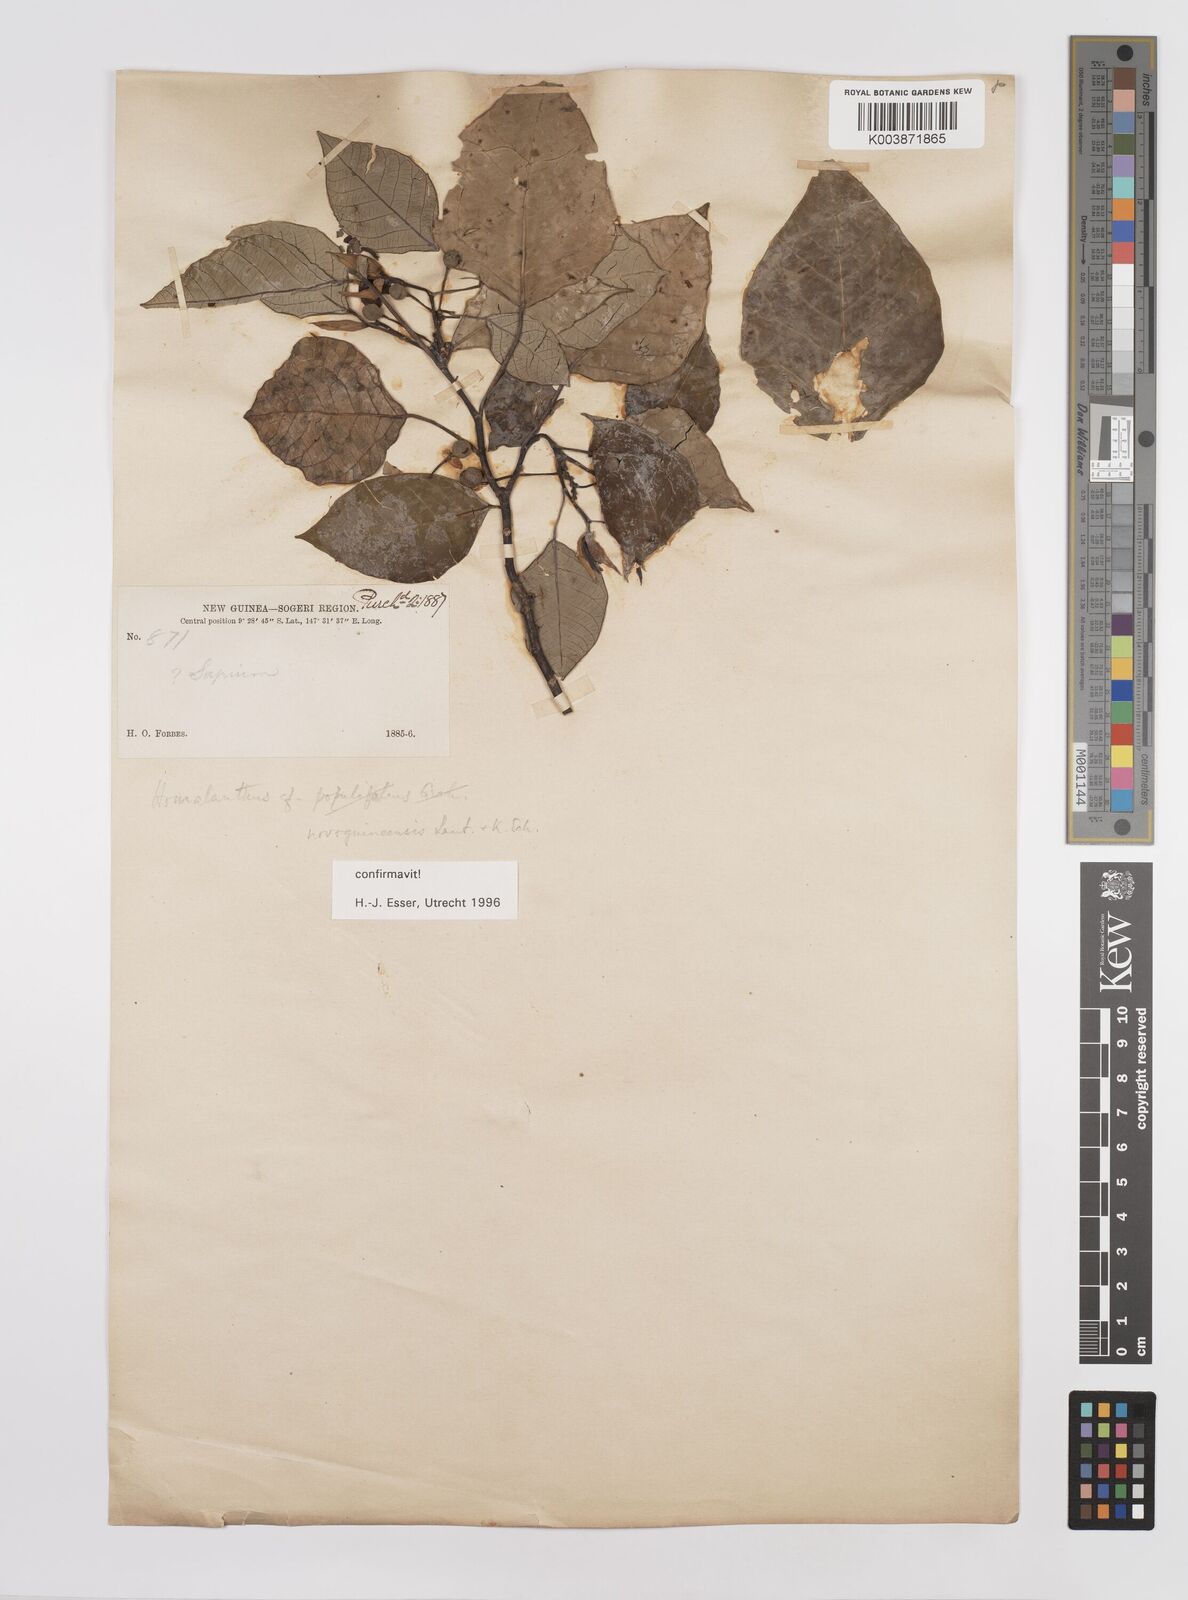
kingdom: Plantae
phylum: Tracheophyta
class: Magnoliopsida
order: Malpighiales
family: Euphorbiaceae
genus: Homalanthus
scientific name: Homalanthus novoguineensis
